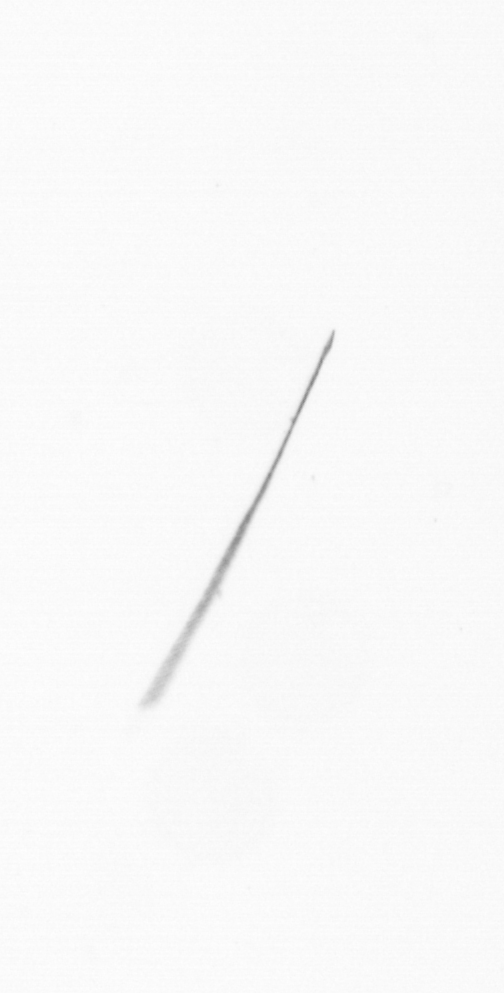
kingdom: Chromista
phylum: Ochrophyta
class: Bacillariophyceae
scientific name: Bacillariophyceae
